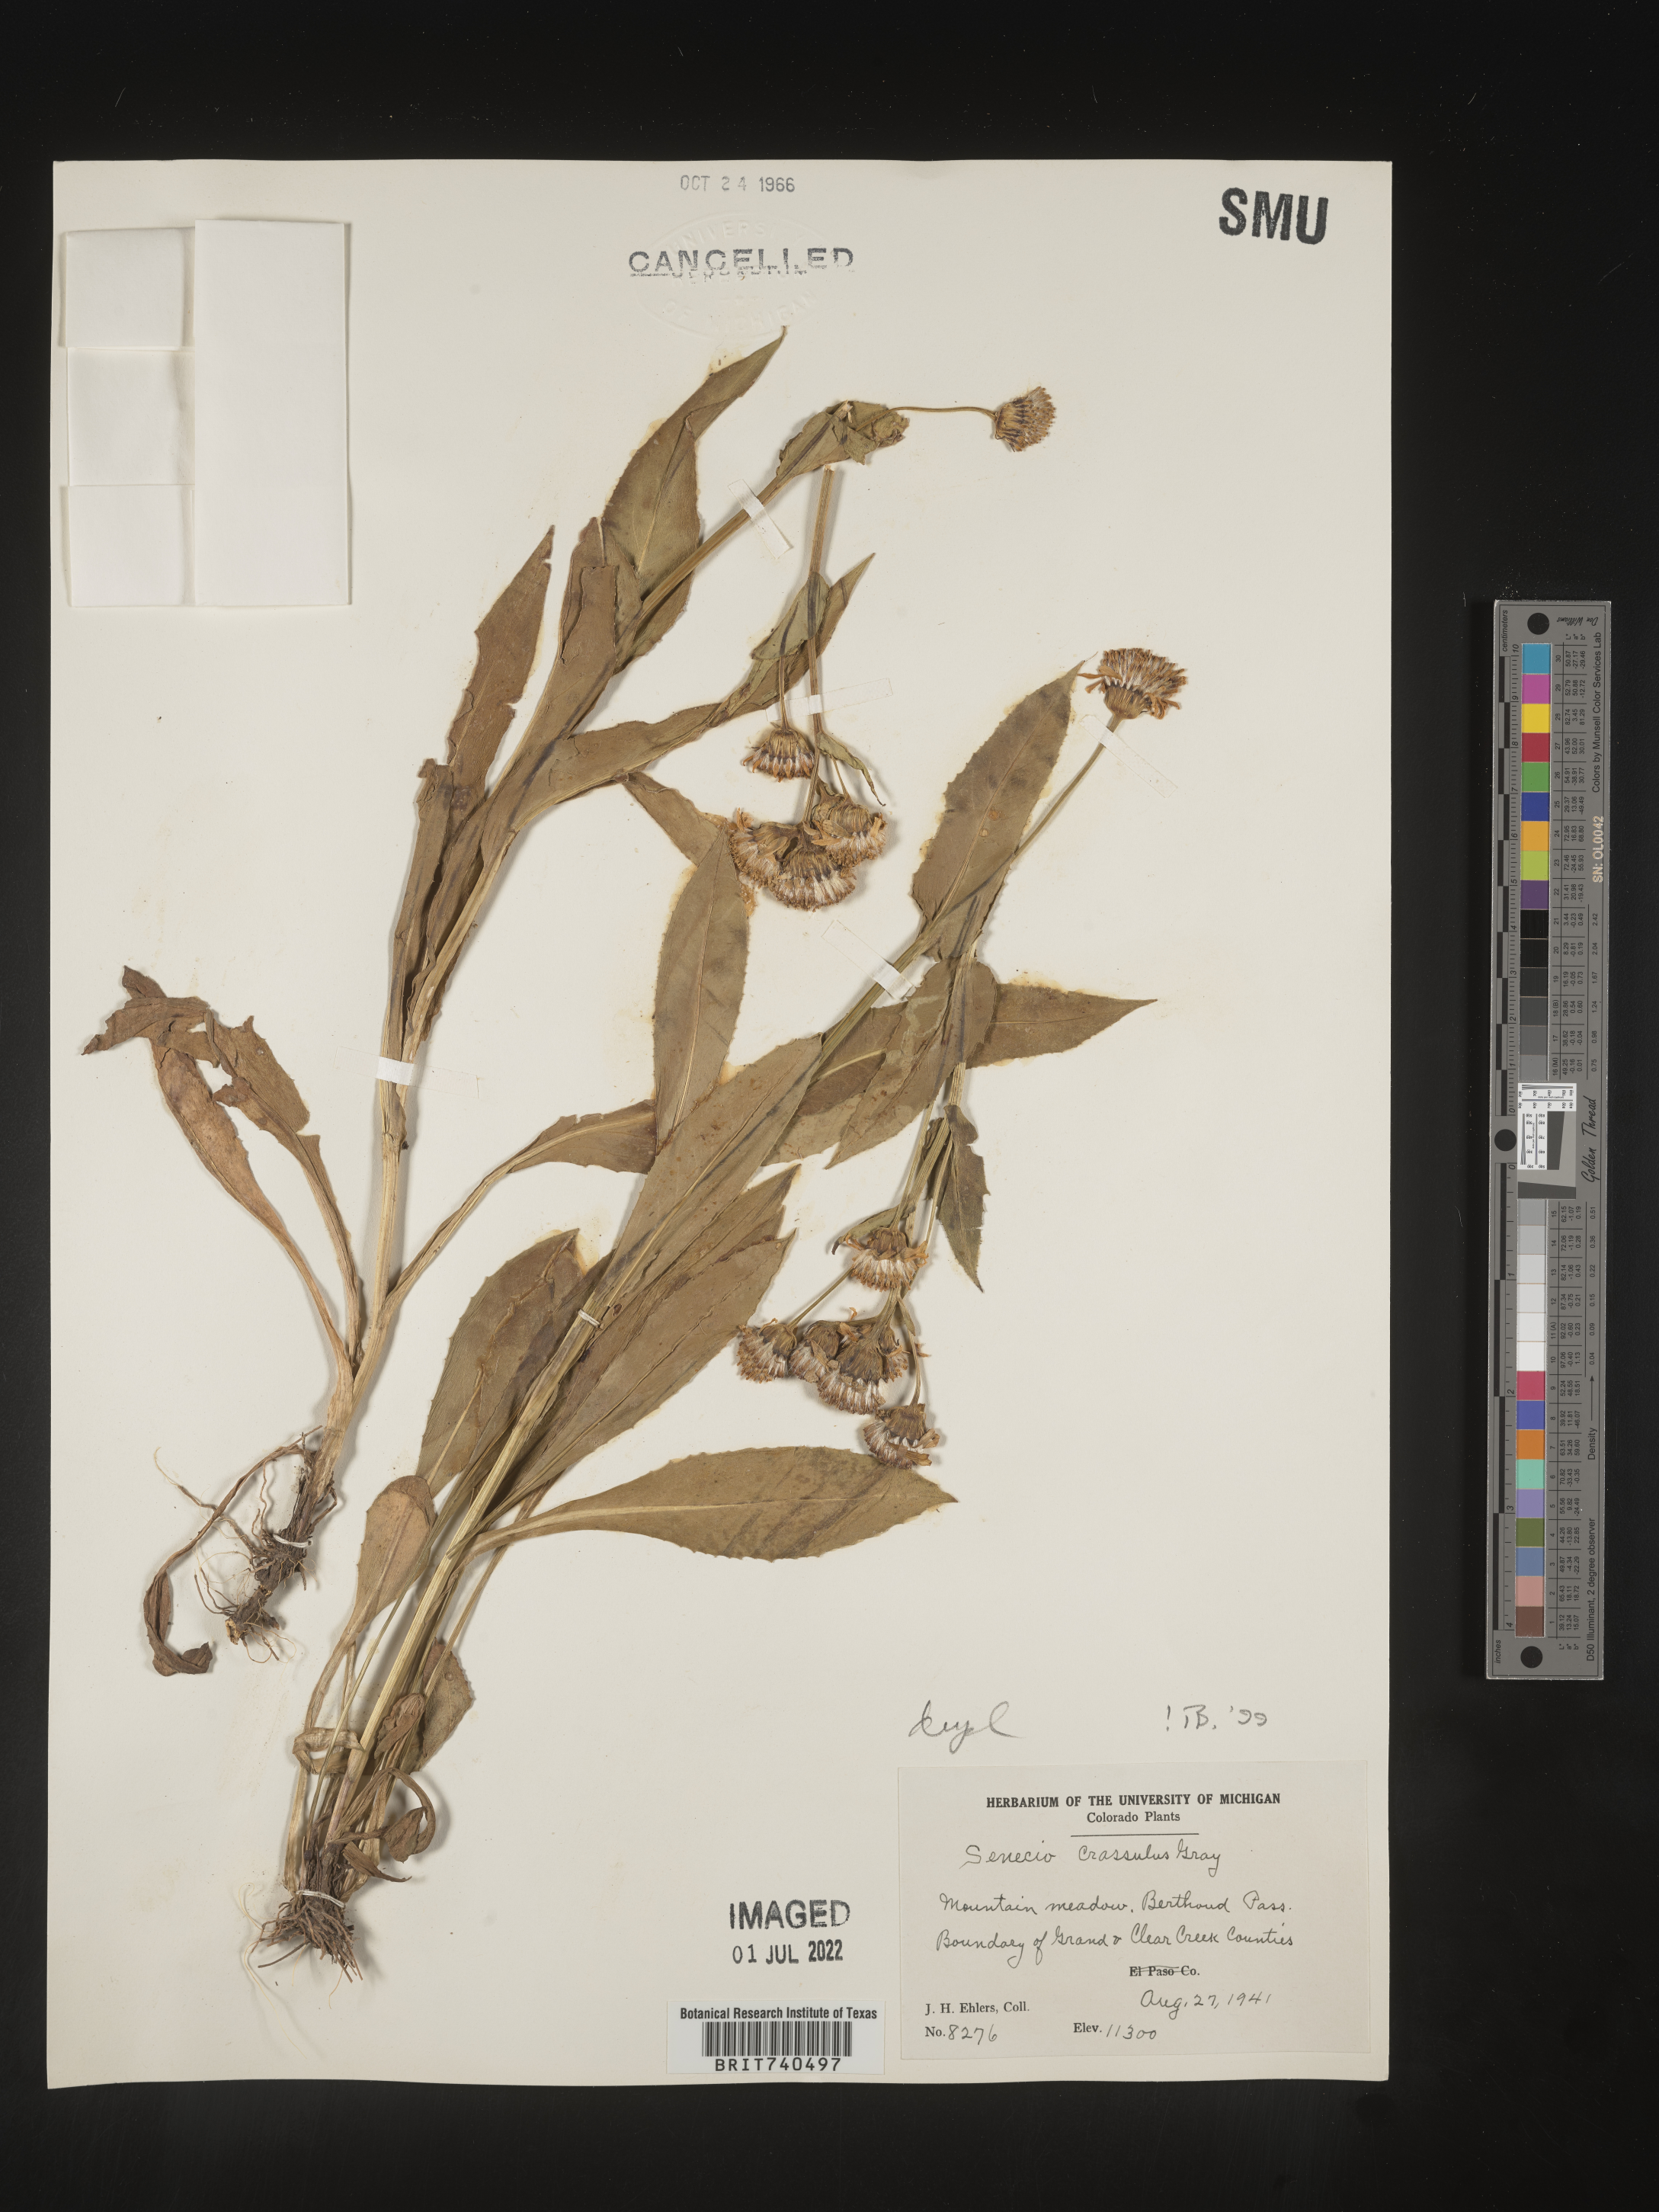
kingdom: Plantae
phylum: Tracheophyta
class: Magnoliopsida
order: Asterales
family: Asteraceae
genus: Senecio
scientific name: Senecio crassulus
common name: Mountain-meadow butterweed
